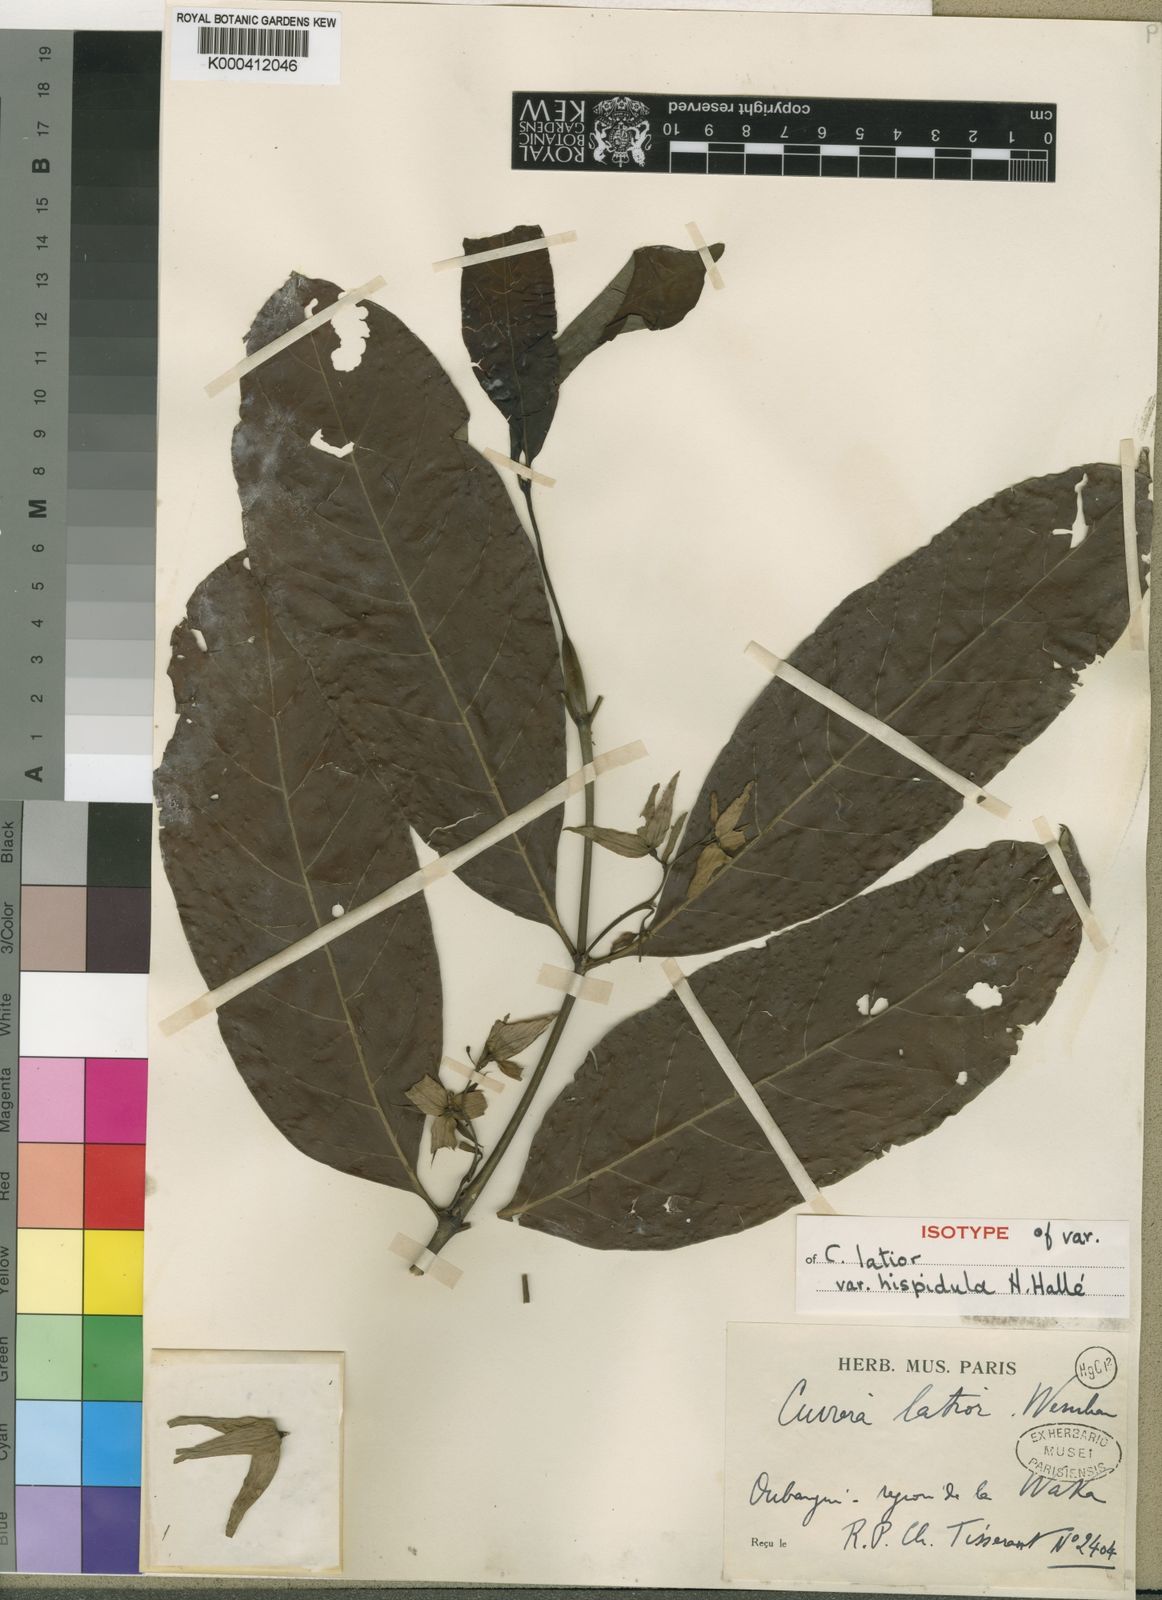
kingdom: Plantae
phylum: Tracheophyta
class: Magnoliopsida
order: Gentianales
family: Rubiaceae
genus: Cuviera
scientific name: Cuviera angolensis
